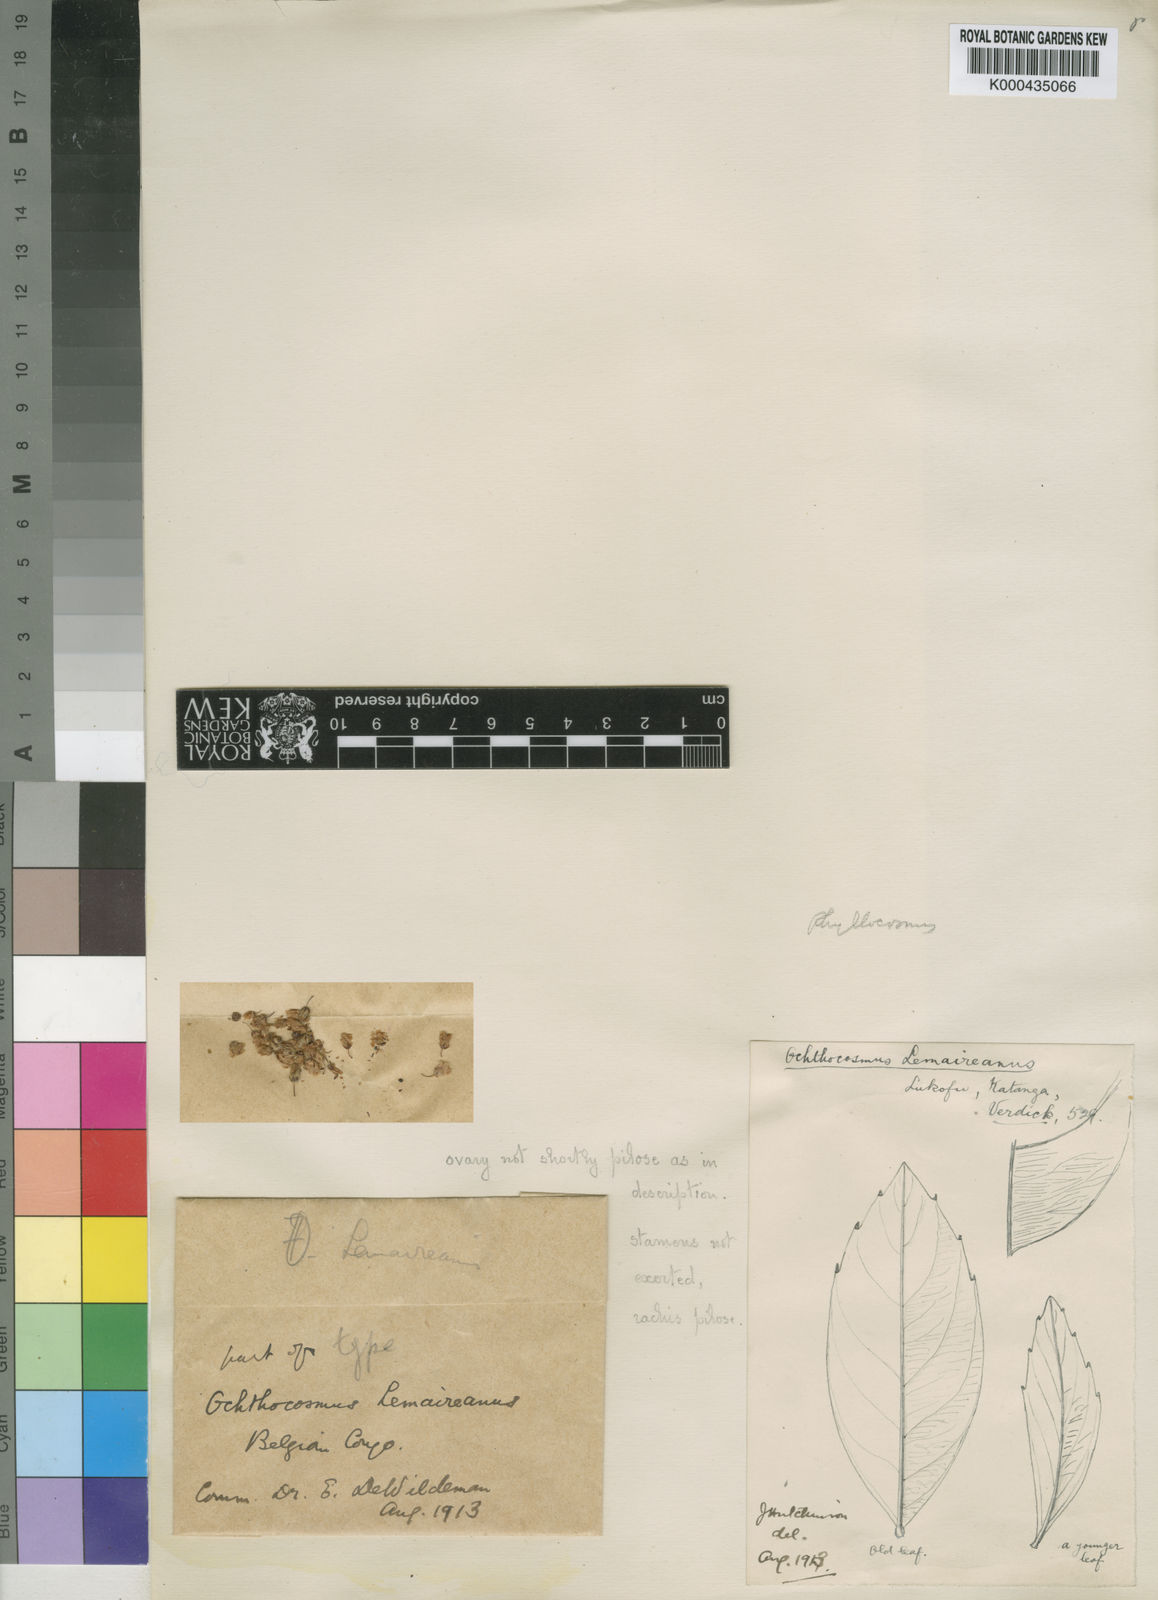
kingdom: Plantae
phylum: Tracheophyta
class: Magnoliopsida
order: Malpighiales
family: Ixonanthaceae
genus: Phyllocosmus
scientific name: Phyllocosmus lemaireanus
